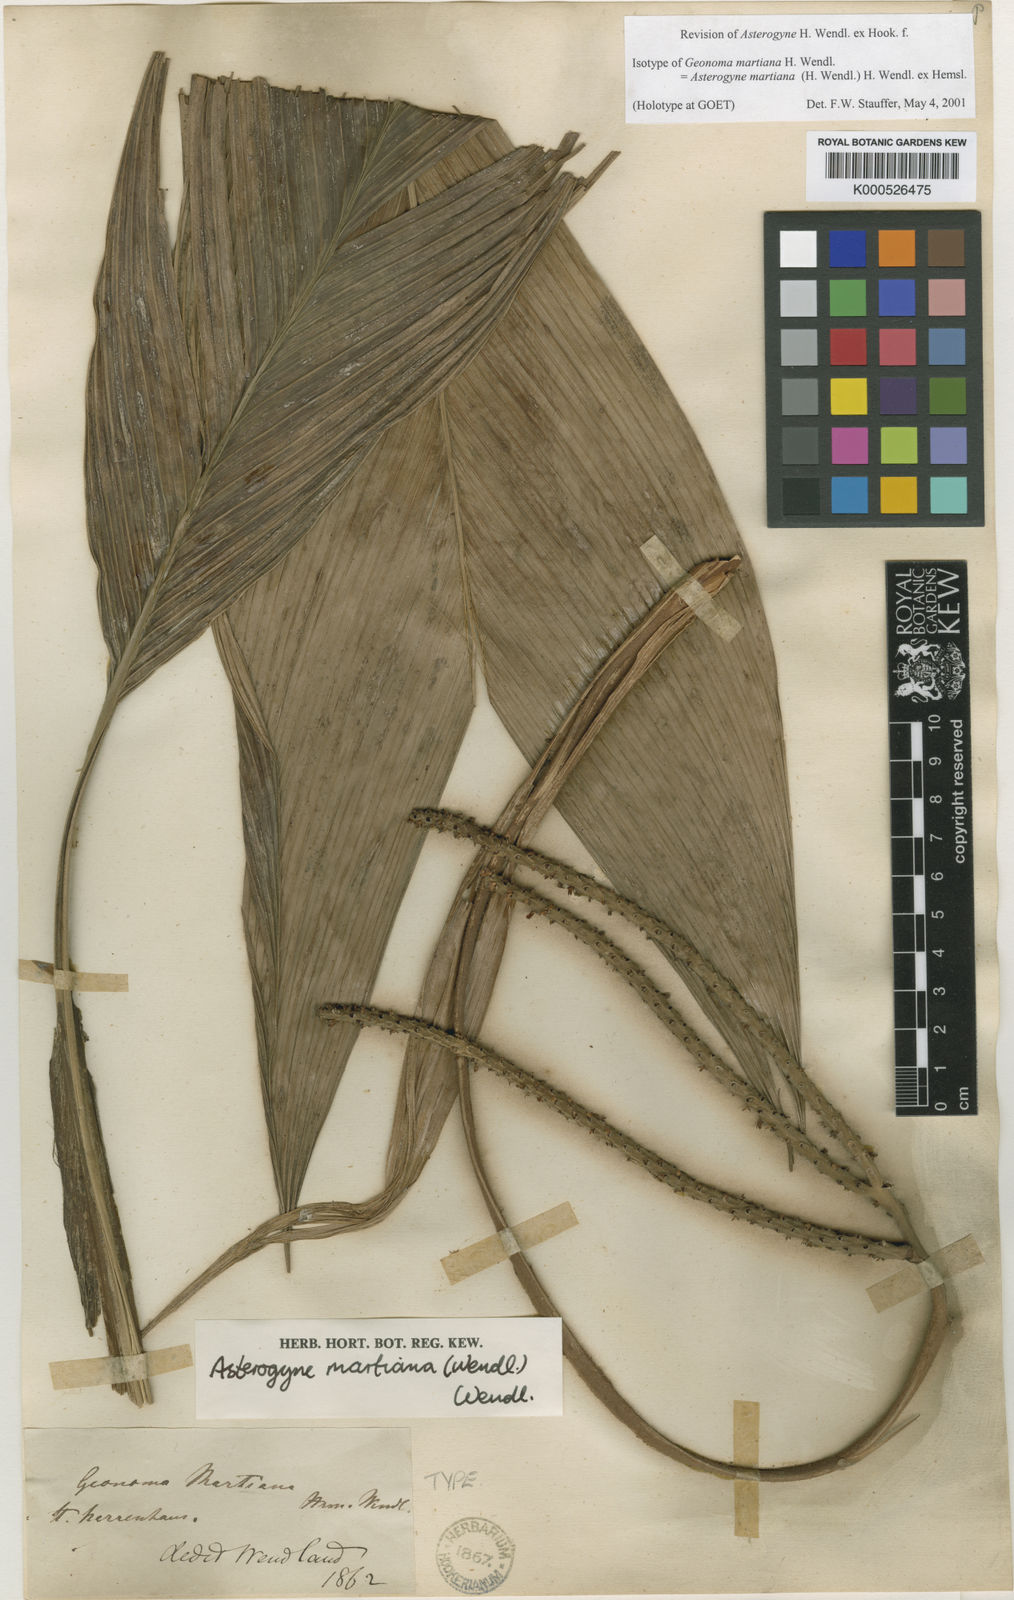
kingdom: Plantae
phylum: Tracheophyta
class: Liliopsida
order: Arecales
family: Arecaceae
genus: Asterogyne
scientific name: Asterogyne martiana
